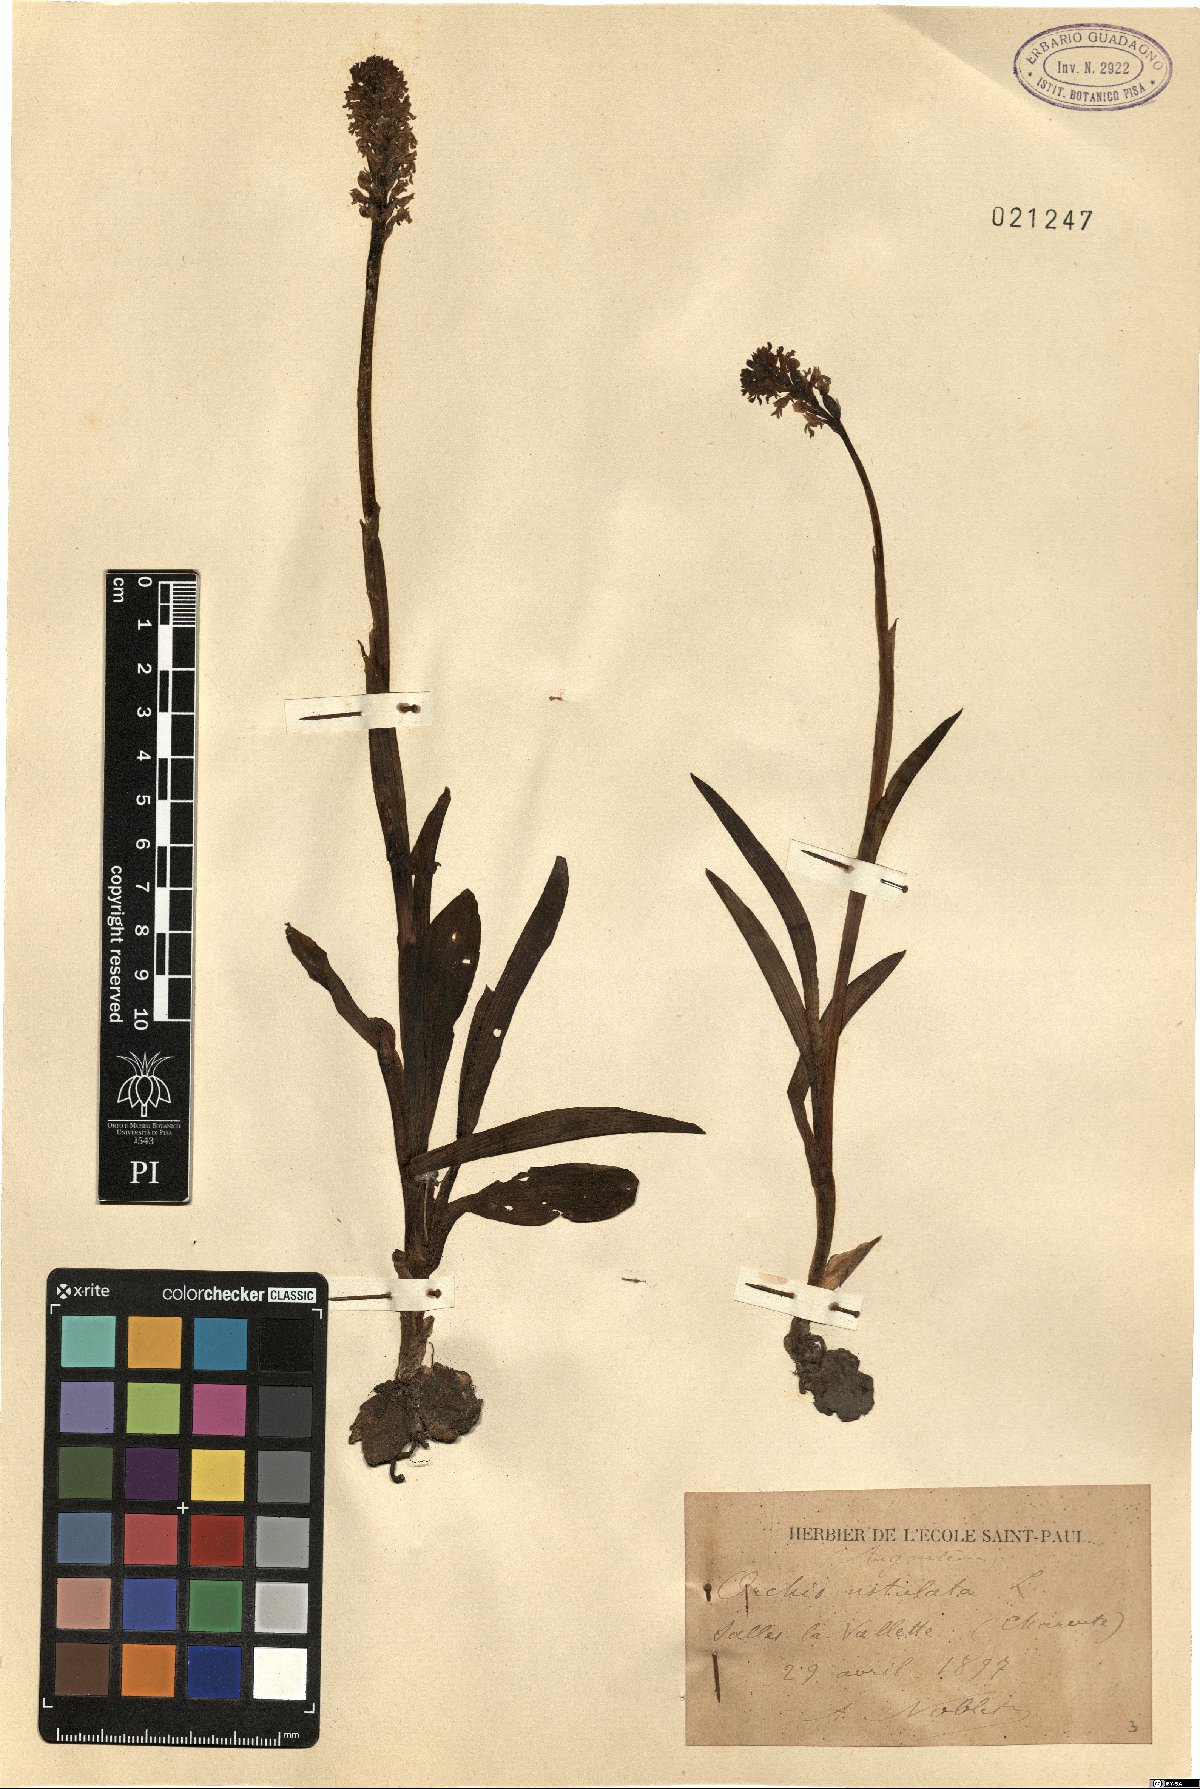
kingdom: Plantae
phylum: Tracheophyta
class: Liliopsida
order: Asparagales
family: Orchidaceae
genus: Neotinea
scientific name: Neotinea ustulata
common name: Burnt orchid
